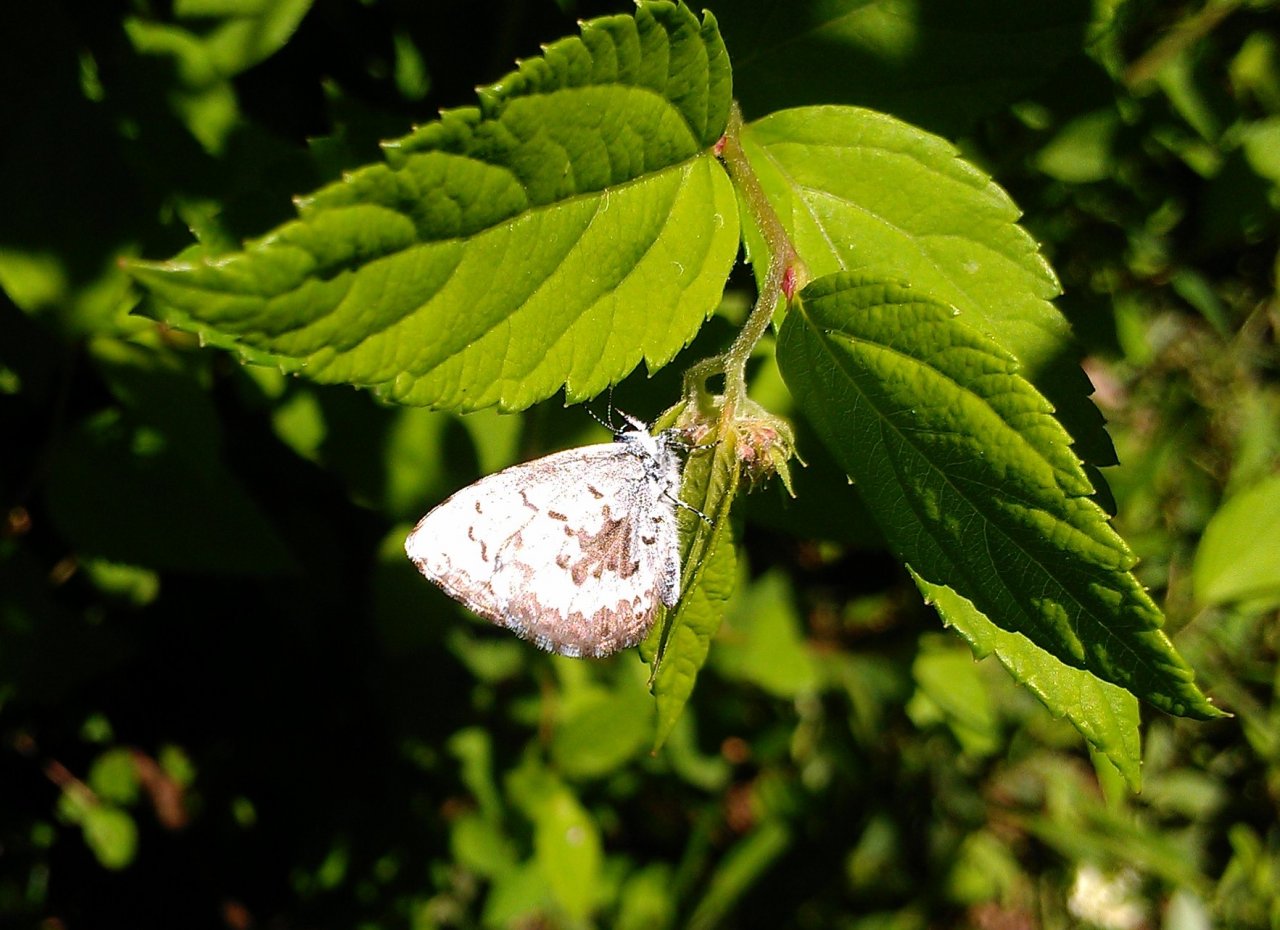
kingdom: Animalia
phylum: Arthropoda
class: Insecta
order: Lepidoptera
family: Lycaenidae
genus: Celastrina
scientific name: Celastrina lucia
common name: Northern Spring Azure
